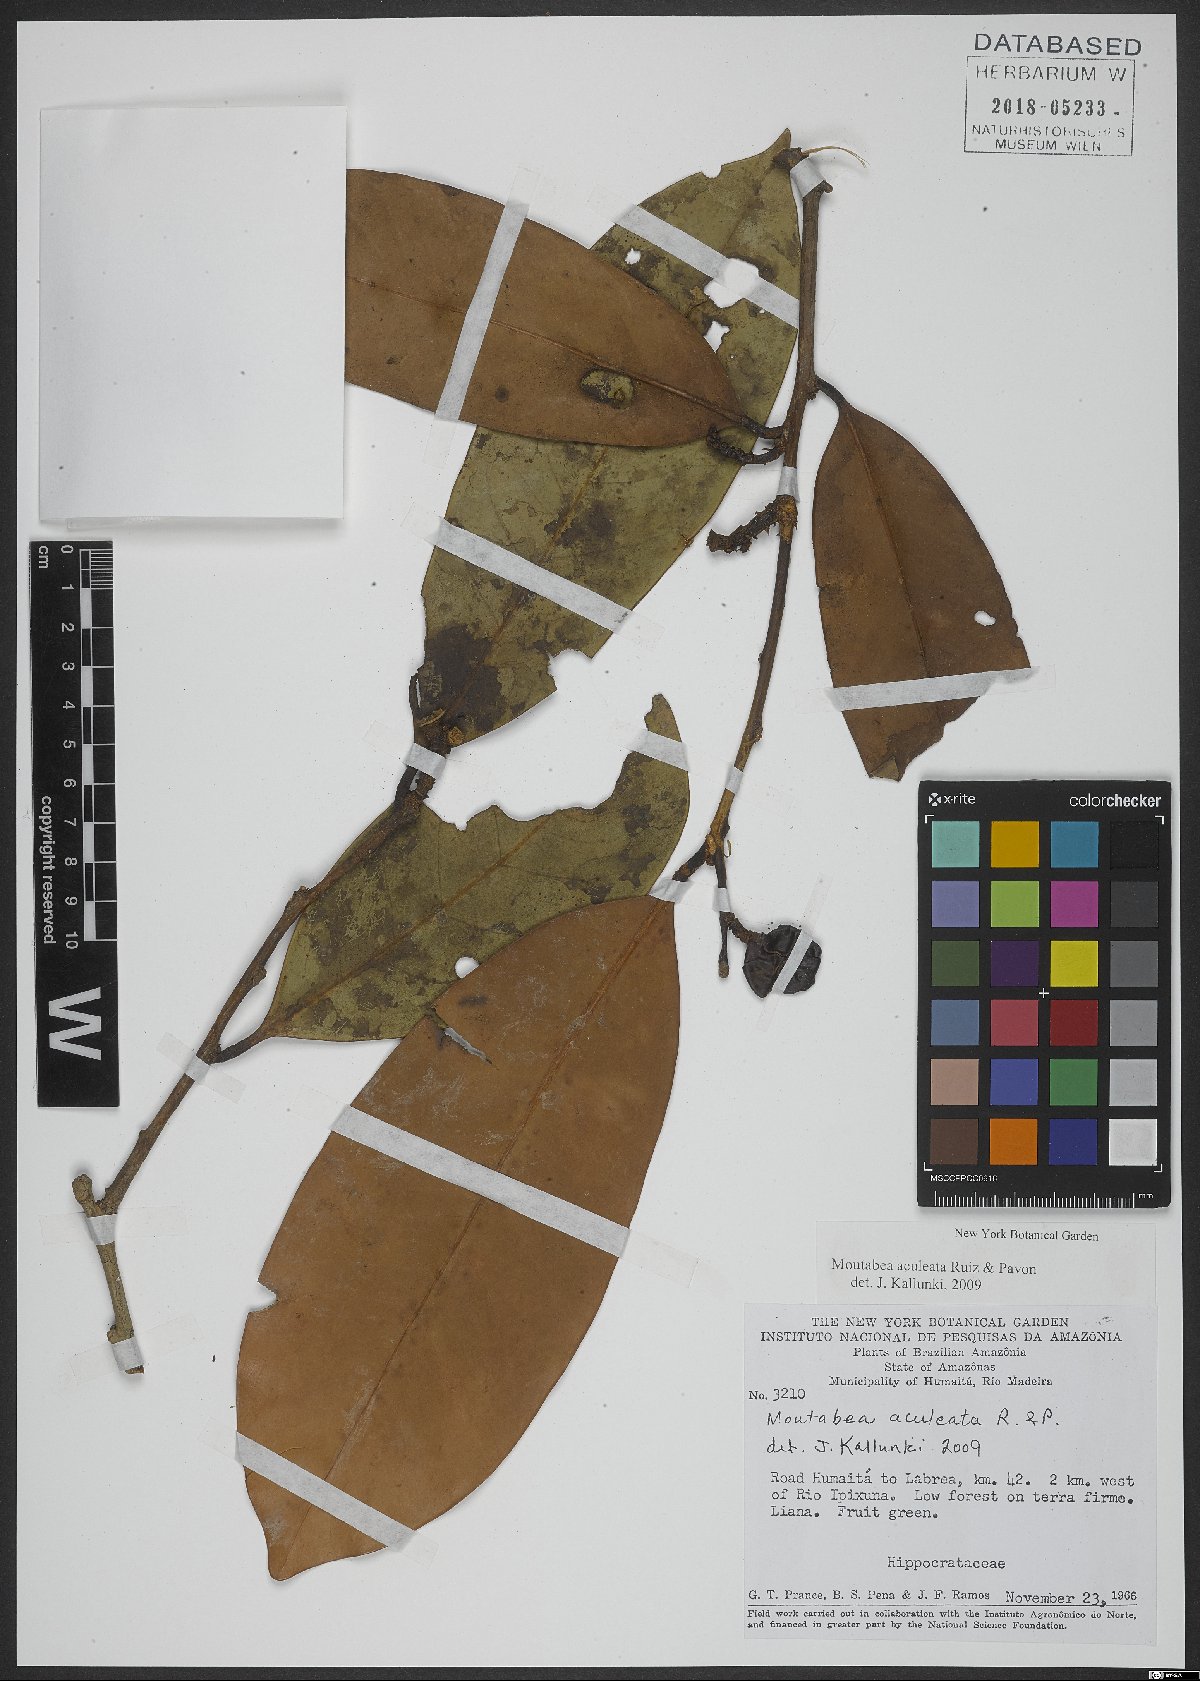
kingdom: Plantae
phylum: Tracheophyta
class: Magnoliopsida
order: Fabales
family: Polygalaceae
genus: Moutabea
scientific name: Moutabea aculeata
